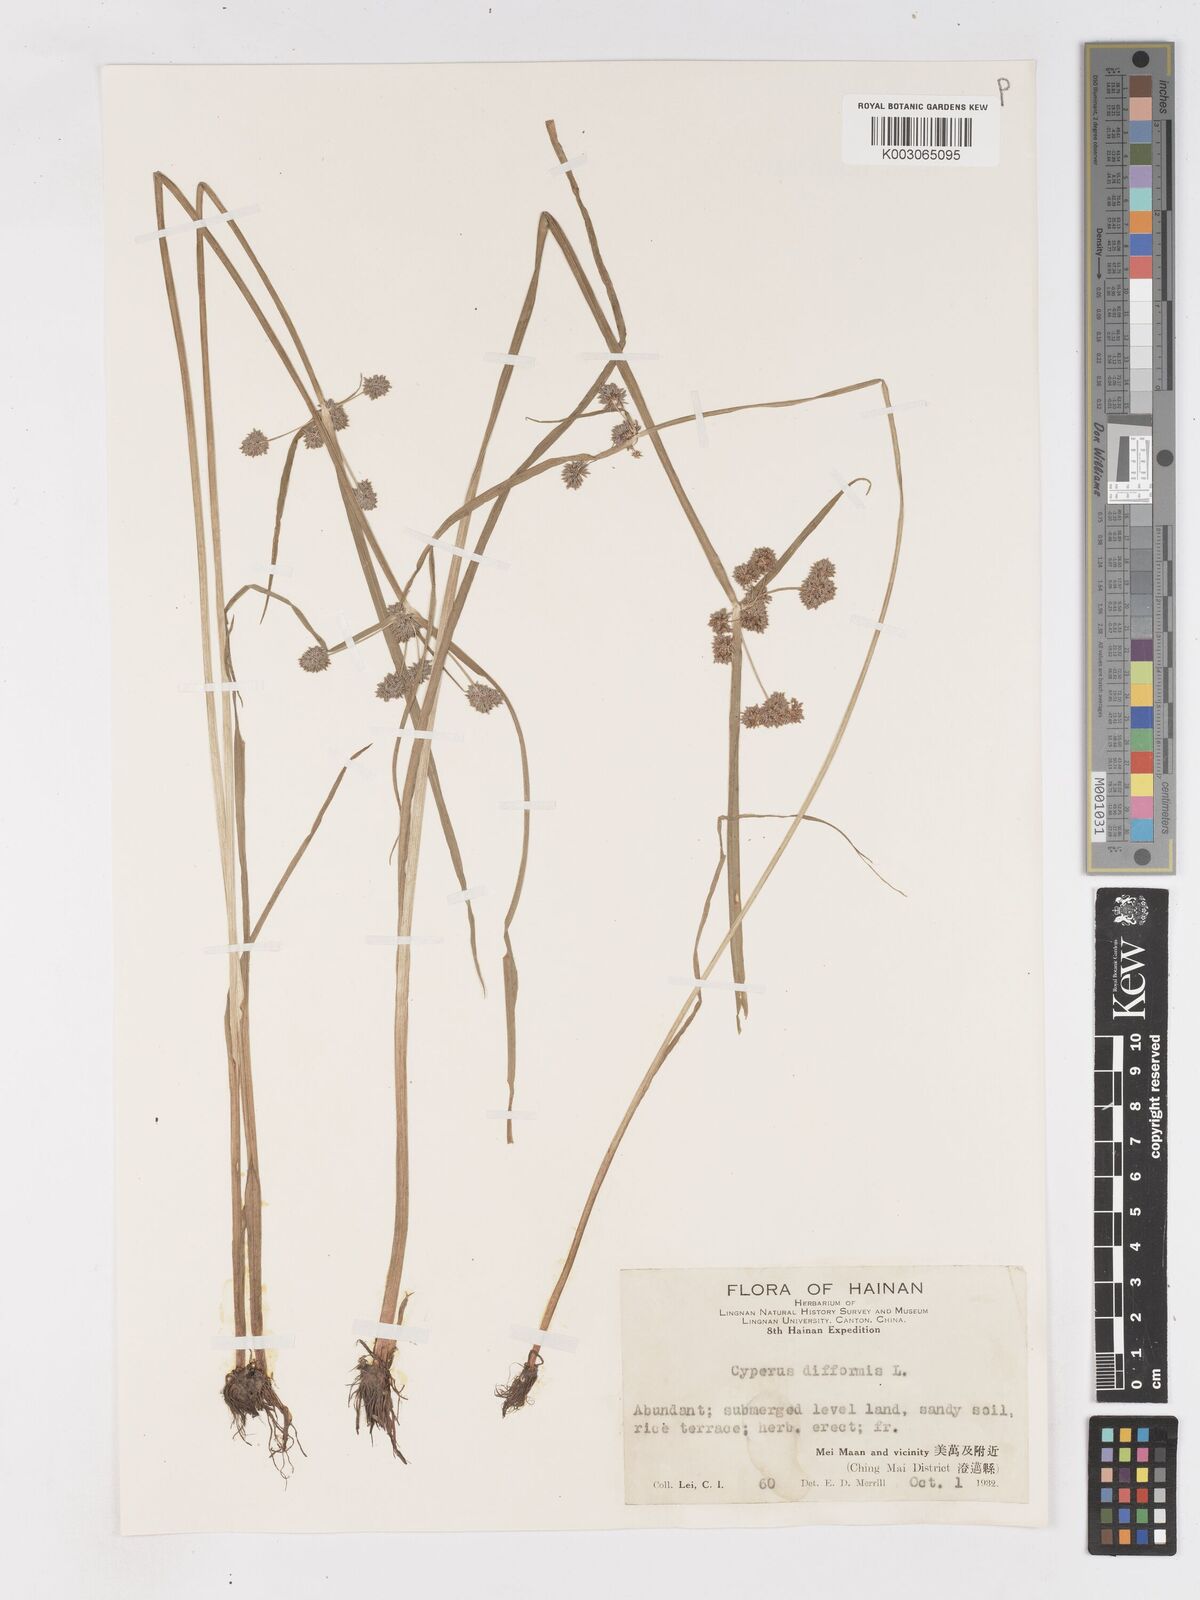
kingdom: Plantae
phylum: Tracheophyta
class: Liliopsida
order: Poales
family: Cyperaceae
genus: Cyperus
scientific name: Cyperus difformis
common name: Variable flatsedge
